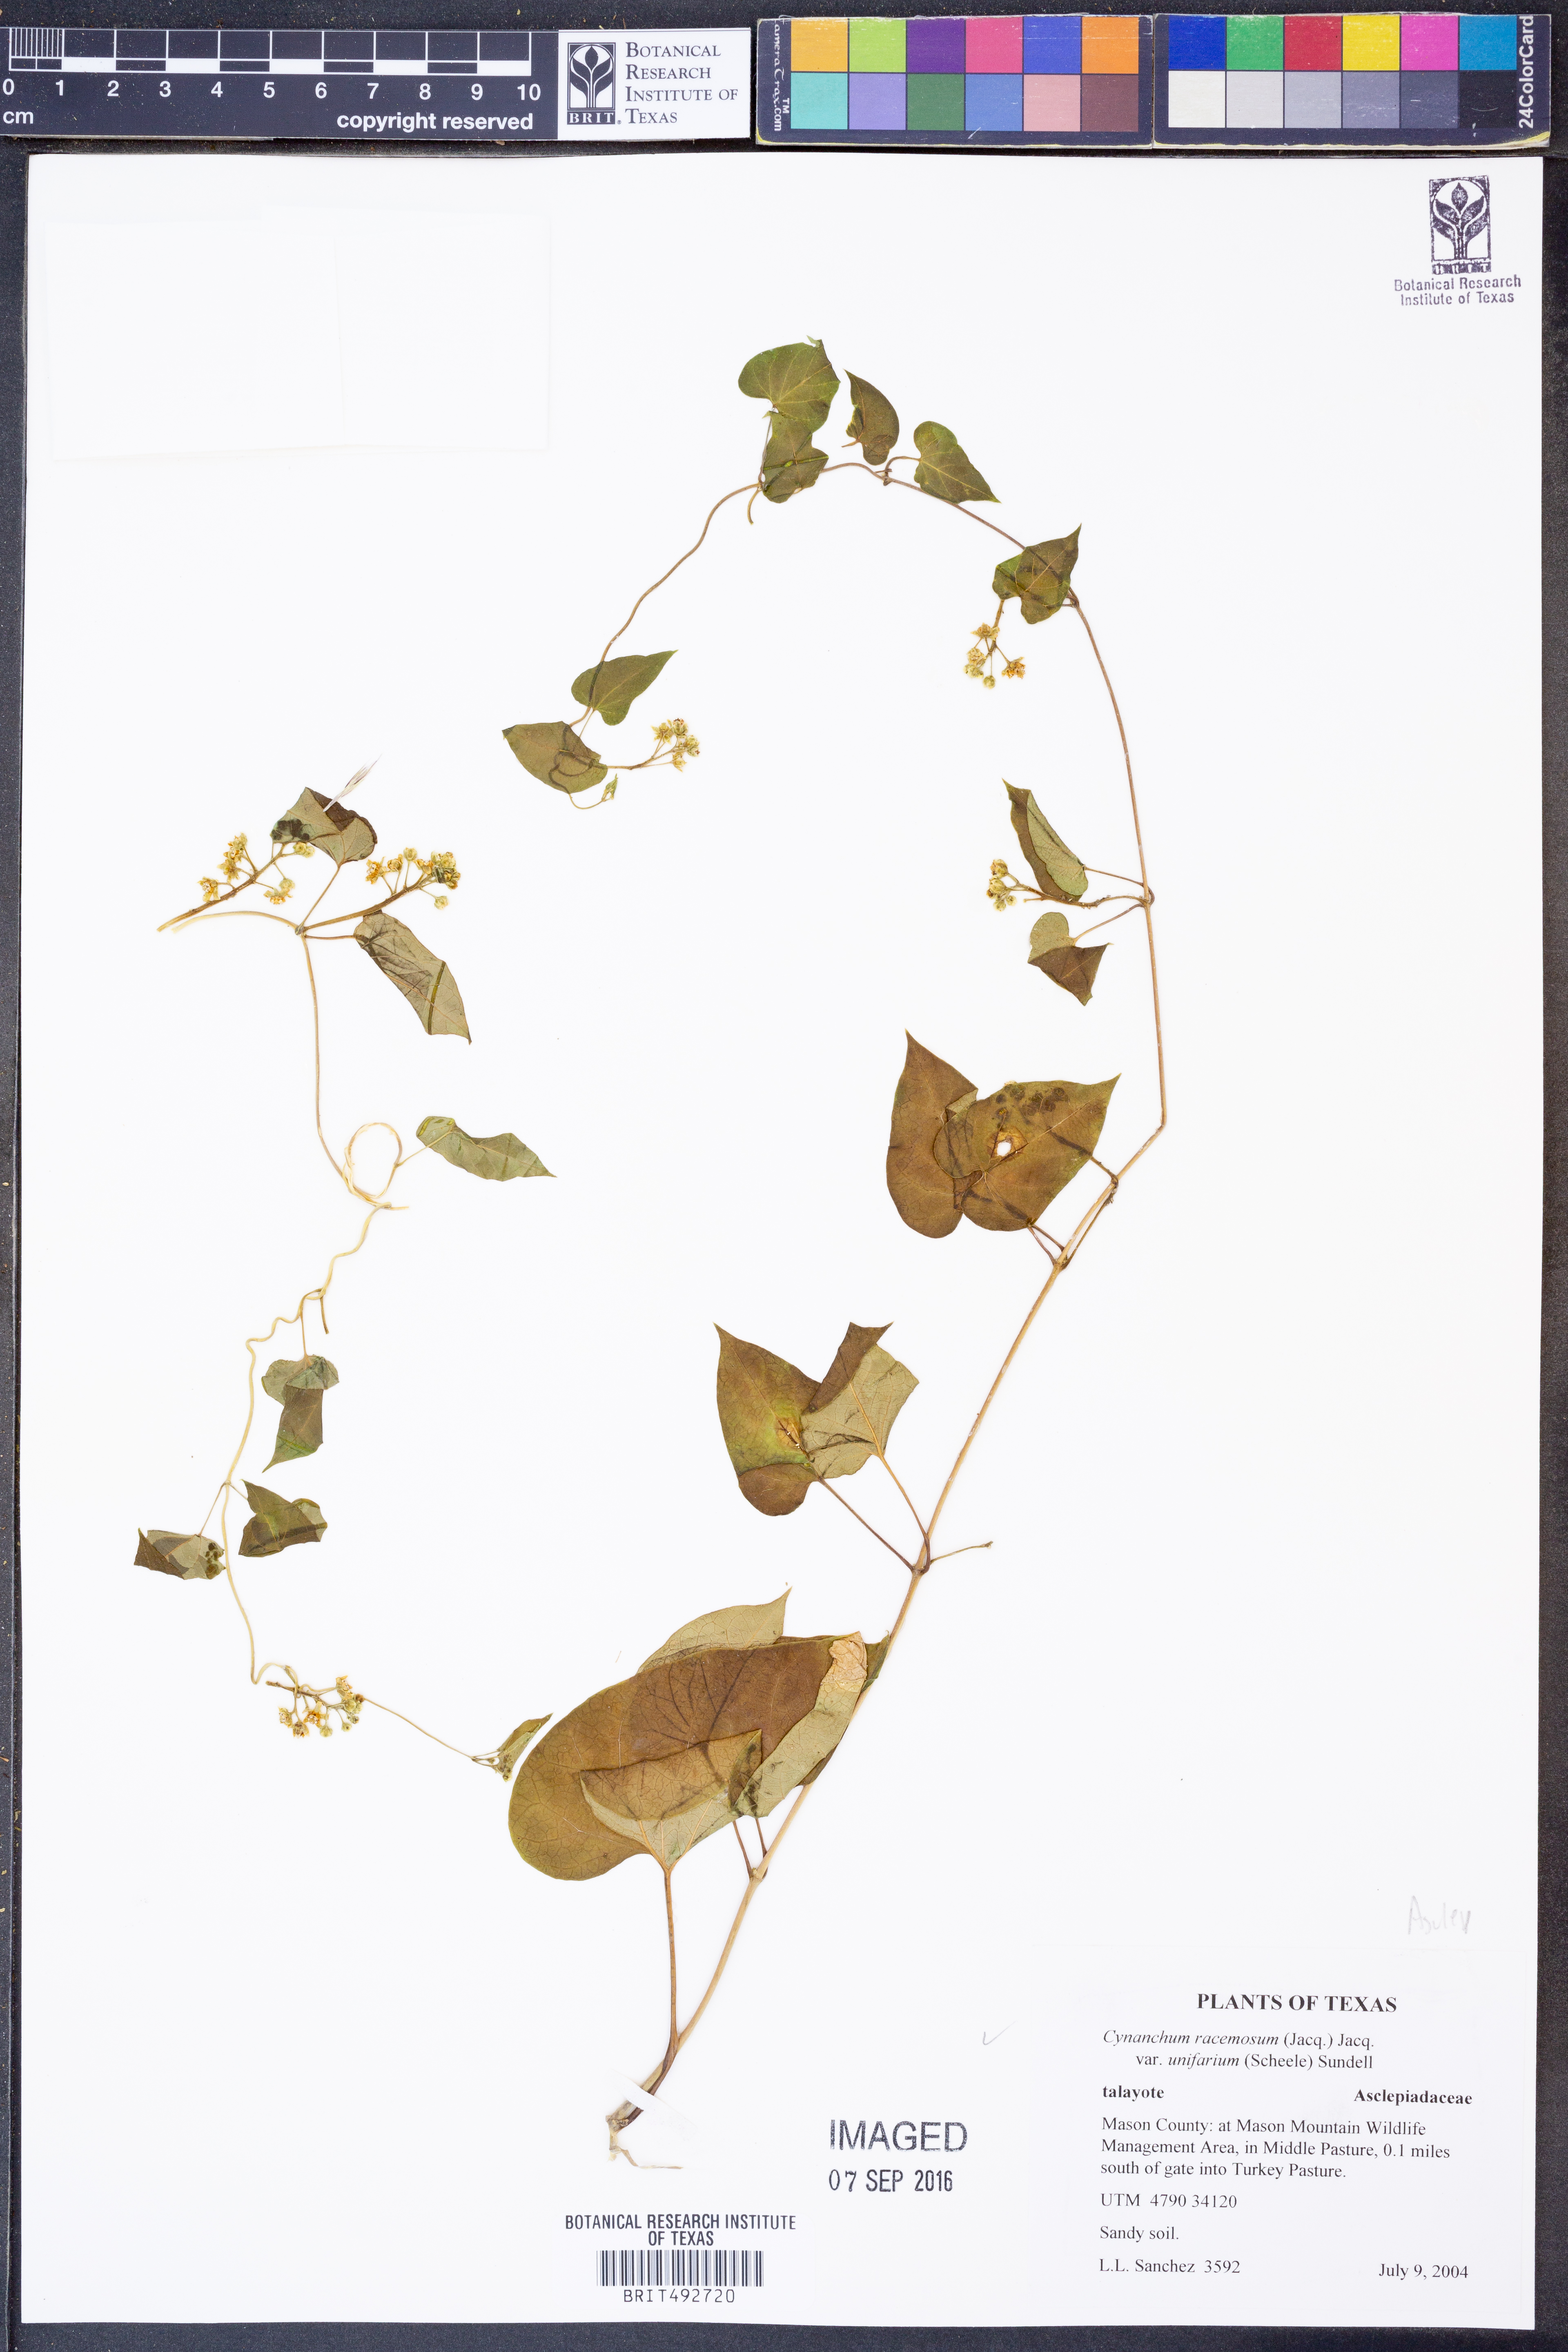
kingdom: Plantae
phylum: Tracheophyta
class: Magnoliopsida
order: Gentianales
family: Apocynaceae
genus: Cynanchum
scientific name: Cynanchum racemosum
